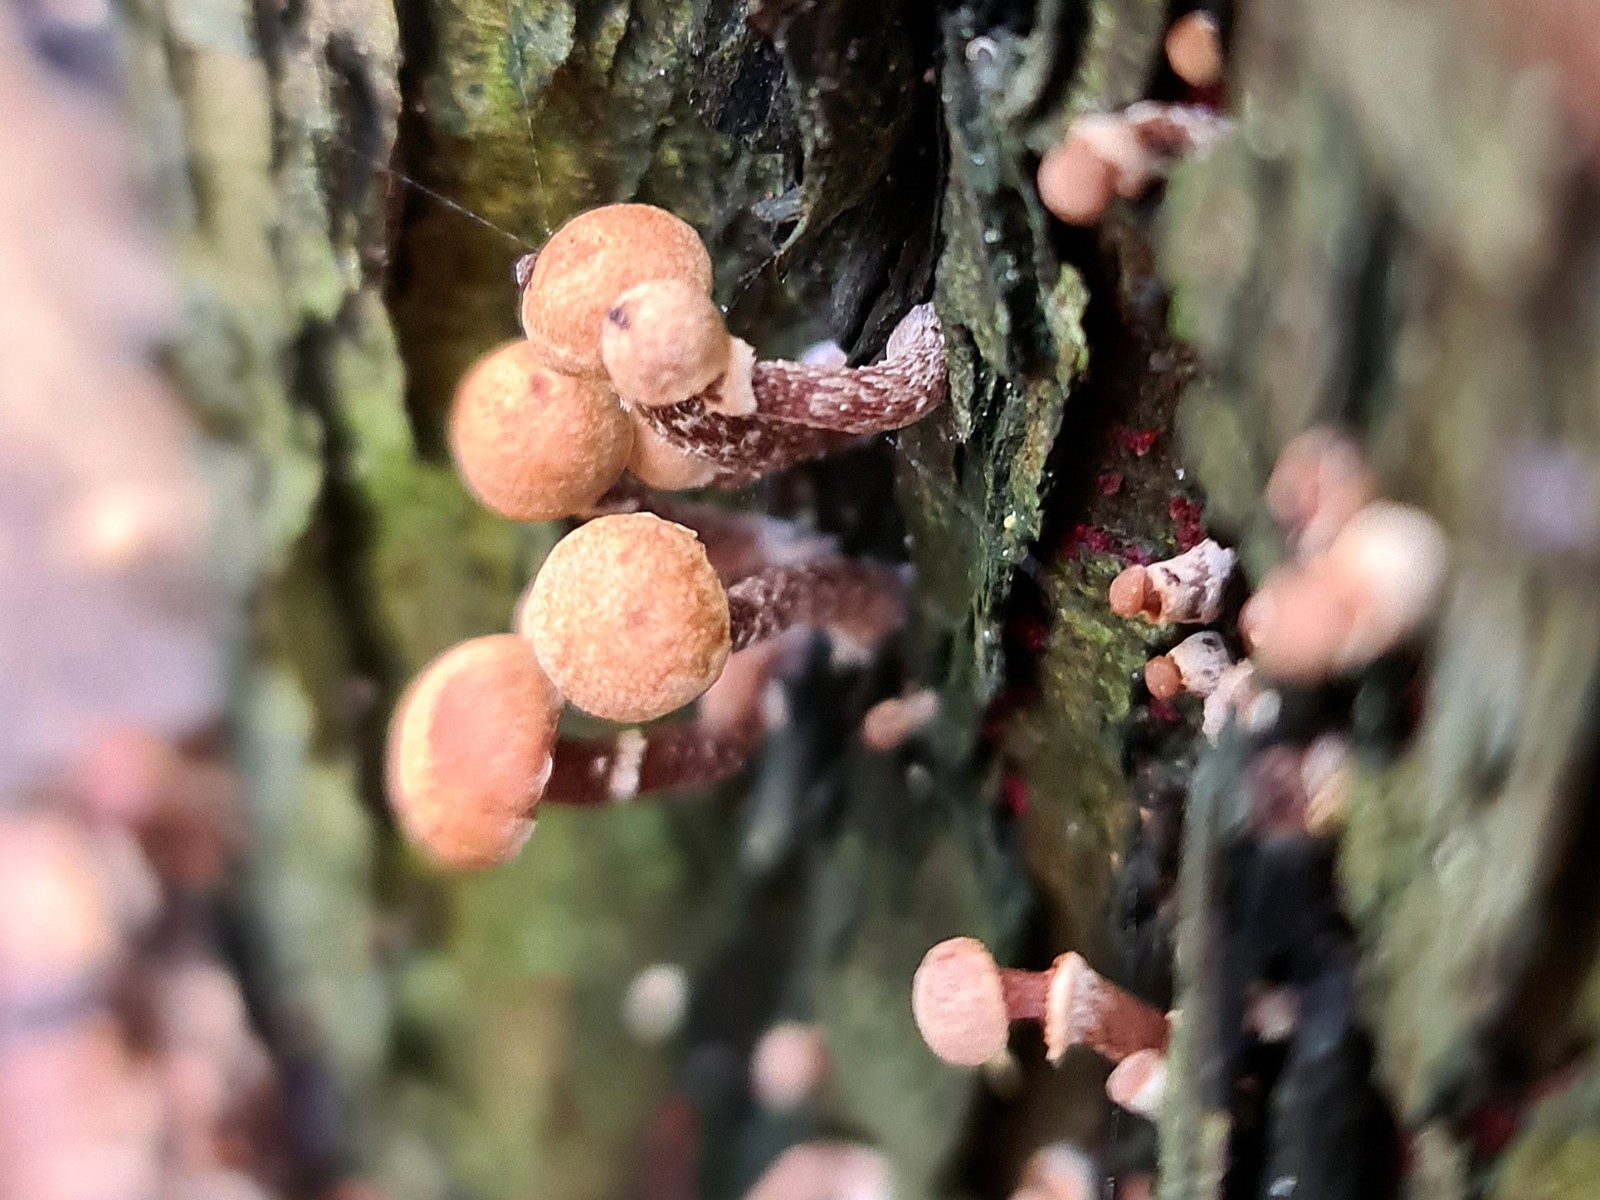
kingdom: Fungi
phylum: Basidiomycota
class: Agaricomycetes
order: Agaricales
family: Tubariaceae
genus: Tubaria
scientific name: Tubaria
